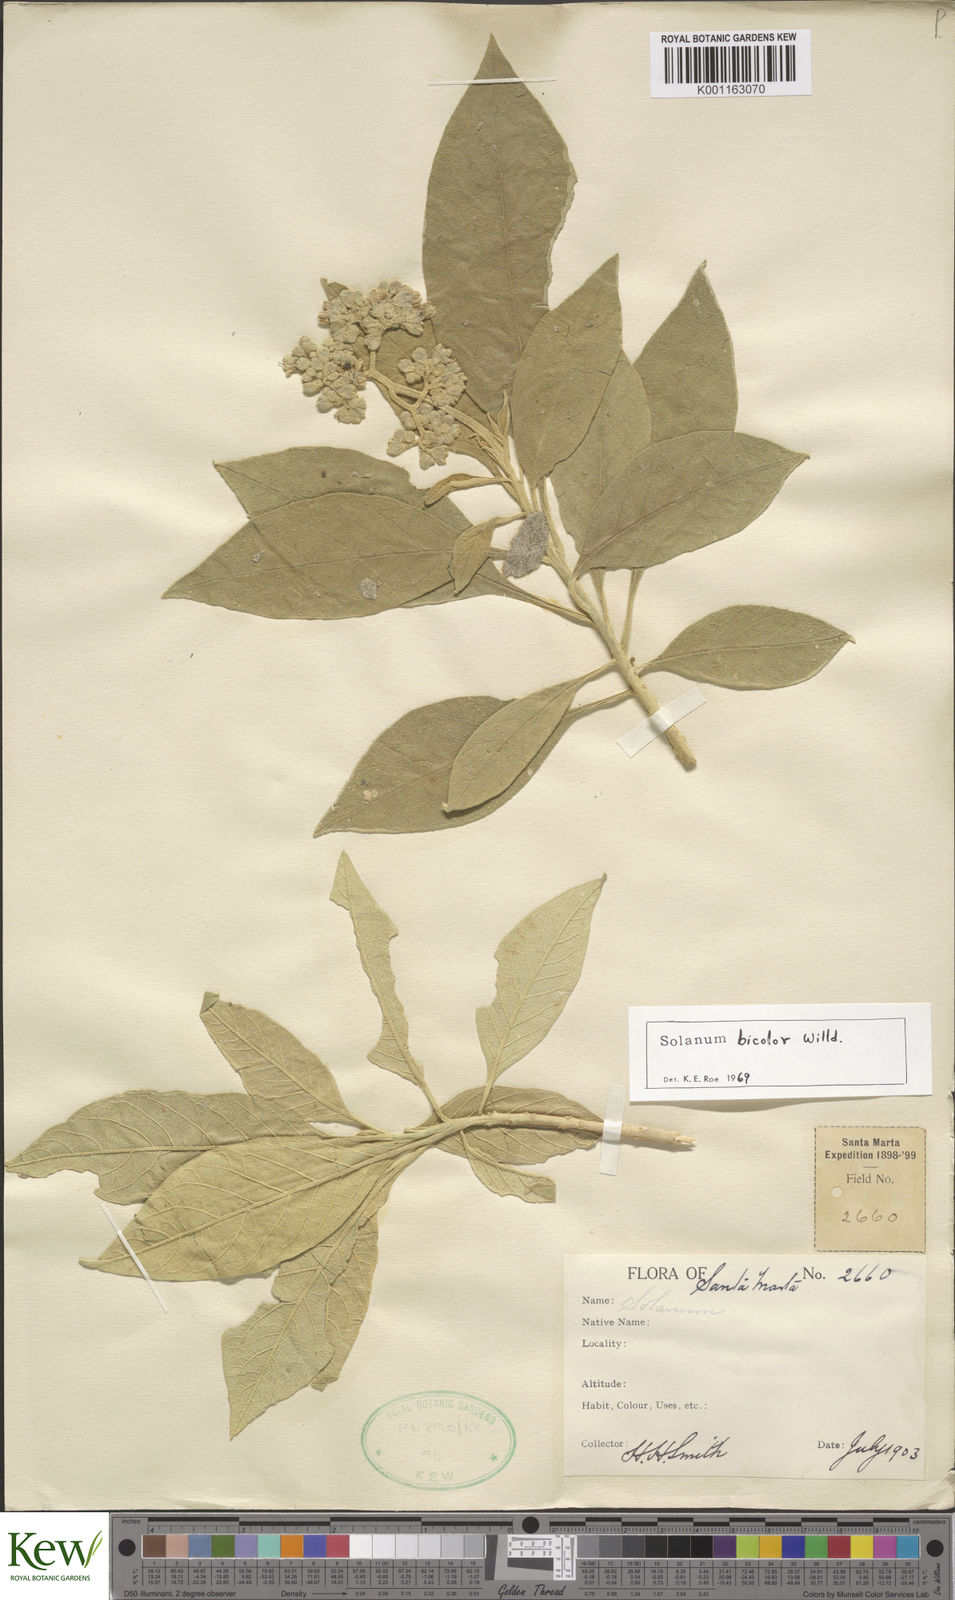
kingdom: Plantae
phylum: Tracheophyta
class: Magnoliopsida
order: Solanales
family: Solanaceae
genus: Solanum
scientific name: Solanum bicolor
